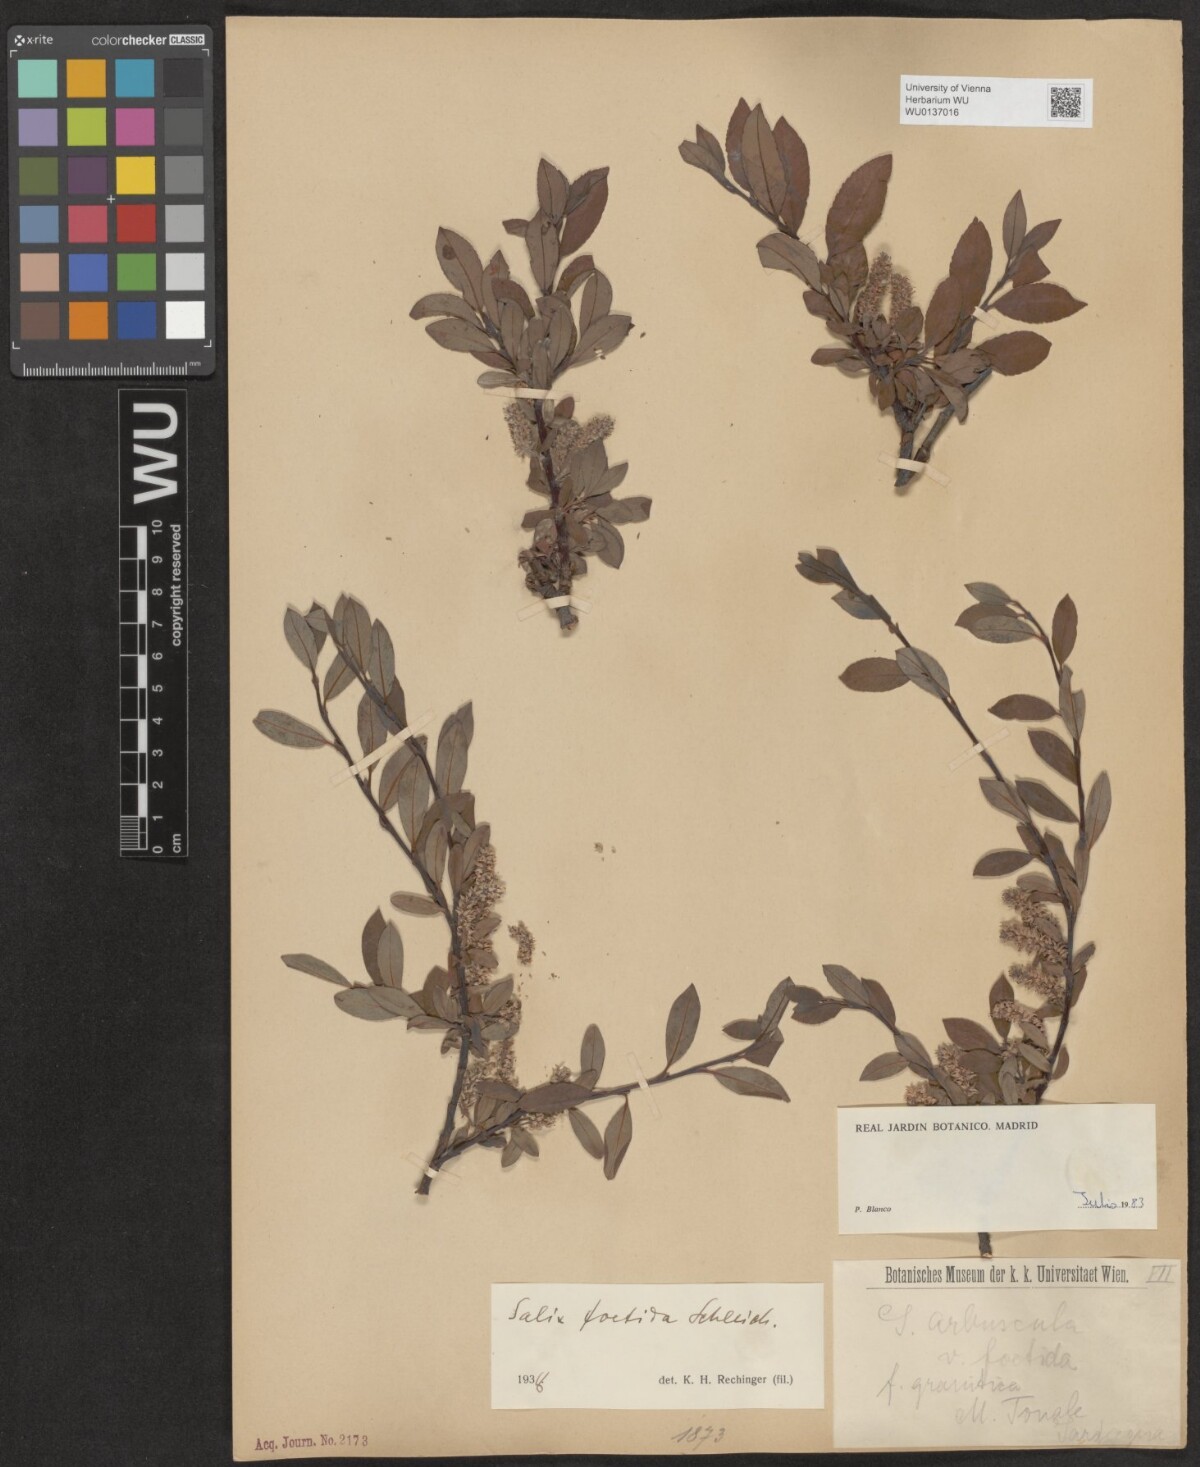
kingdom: Plantae
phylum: Tracheophyta
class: Magnoliopsida
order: Malpighiales
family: Salicaceae
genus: Salix
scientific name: Salix foetida
